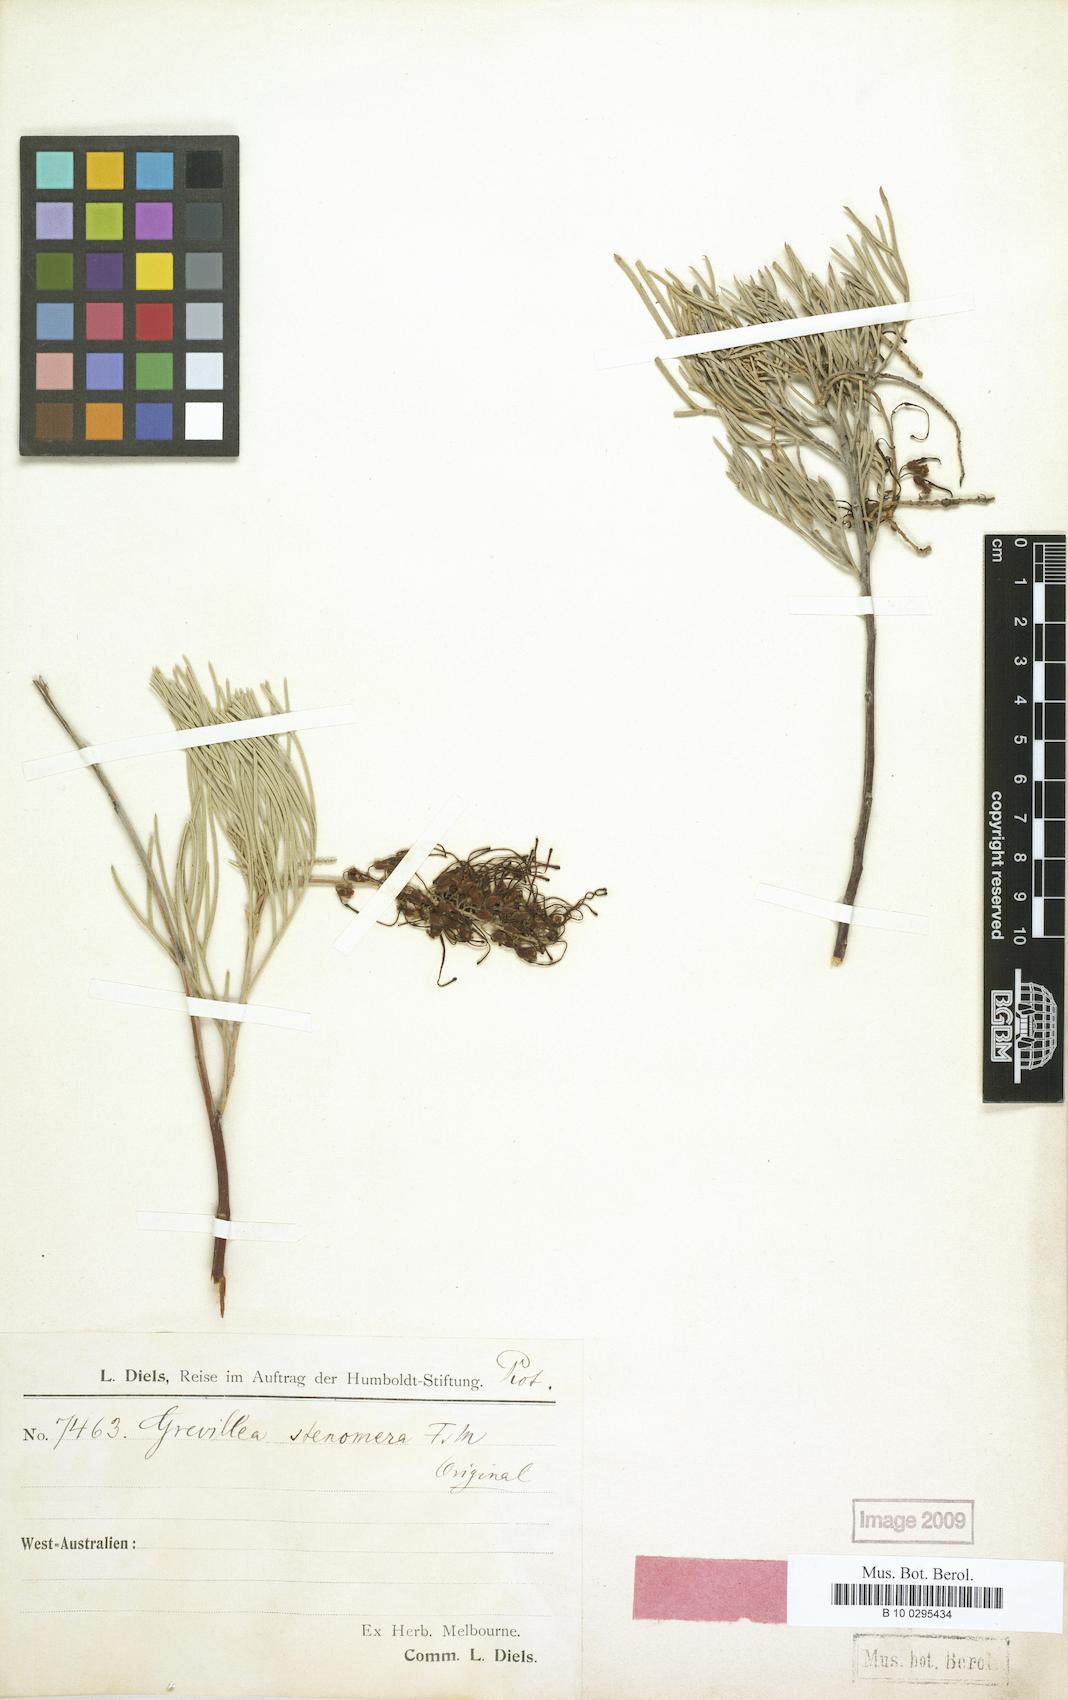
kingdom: Plantae
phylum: Tracheophyta
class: Magnoliopsida
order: Proteales
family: Proteaceae
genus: Grevillea
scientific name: Grevillea stenomera
